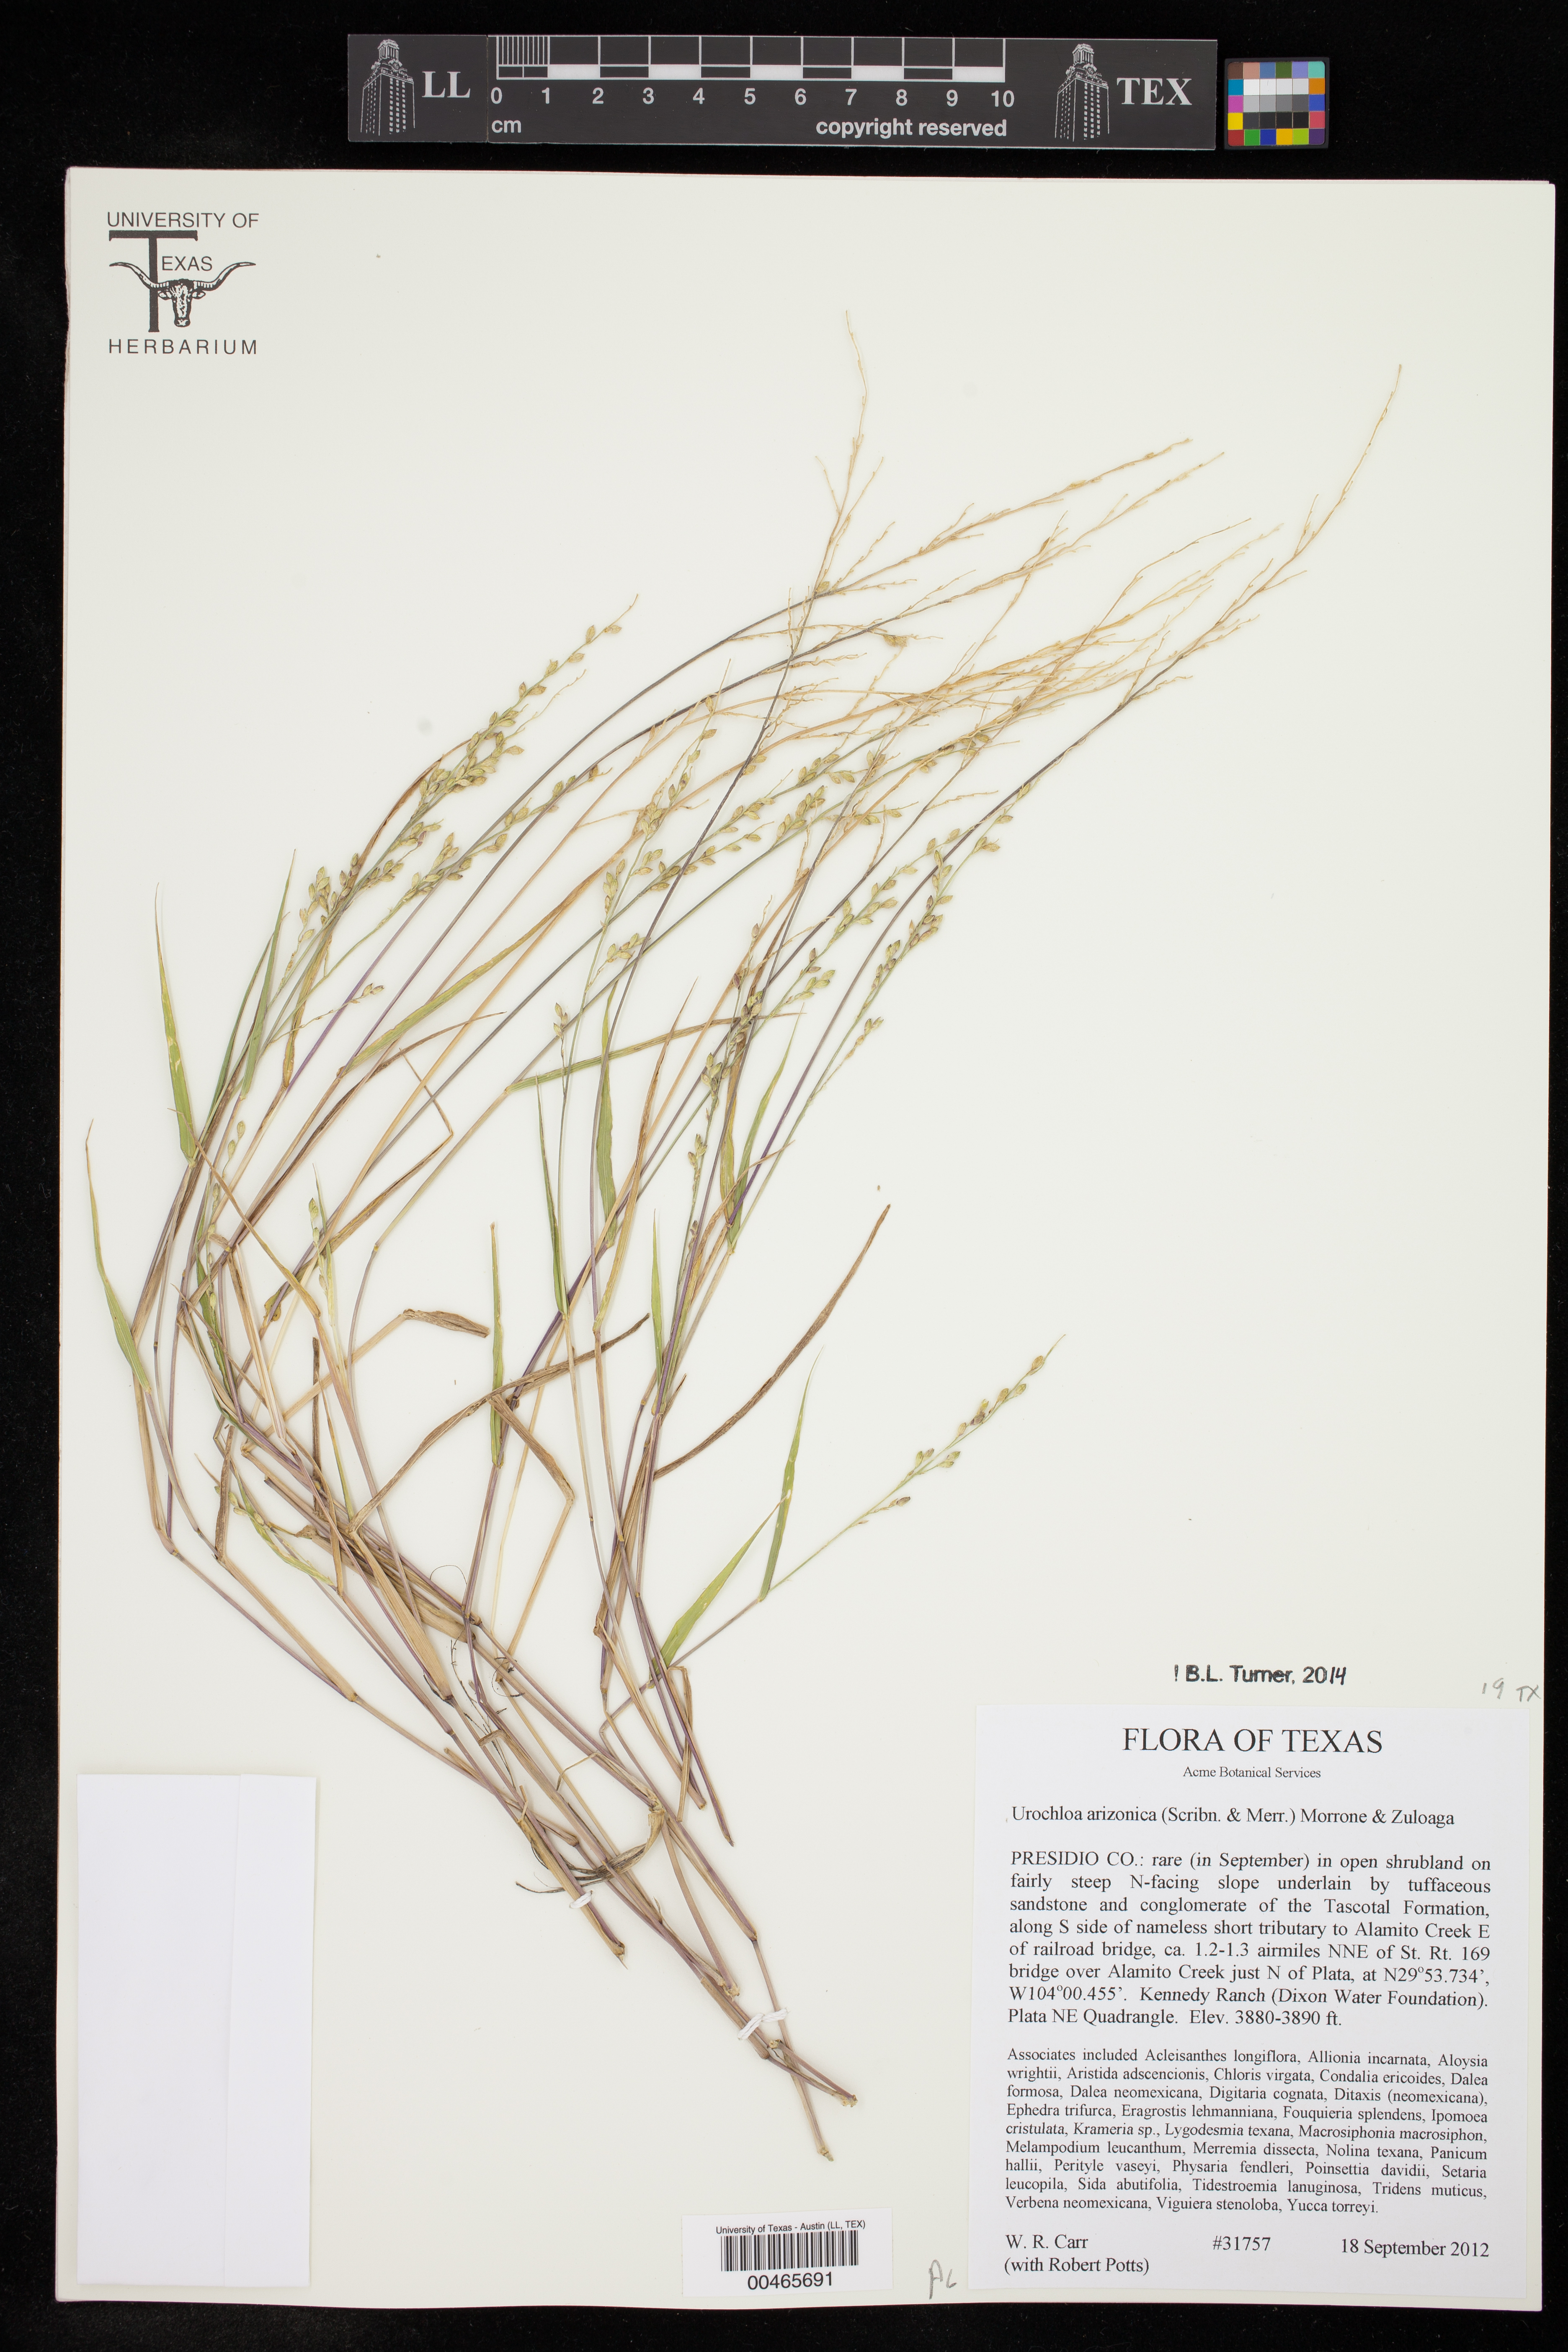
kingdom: Plantae
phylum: Tracheophyta
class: Liliopsida
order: Poales
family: Poaceae
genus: Urochloa
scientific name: Urochloa arizonica
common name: Arizona signal grass
